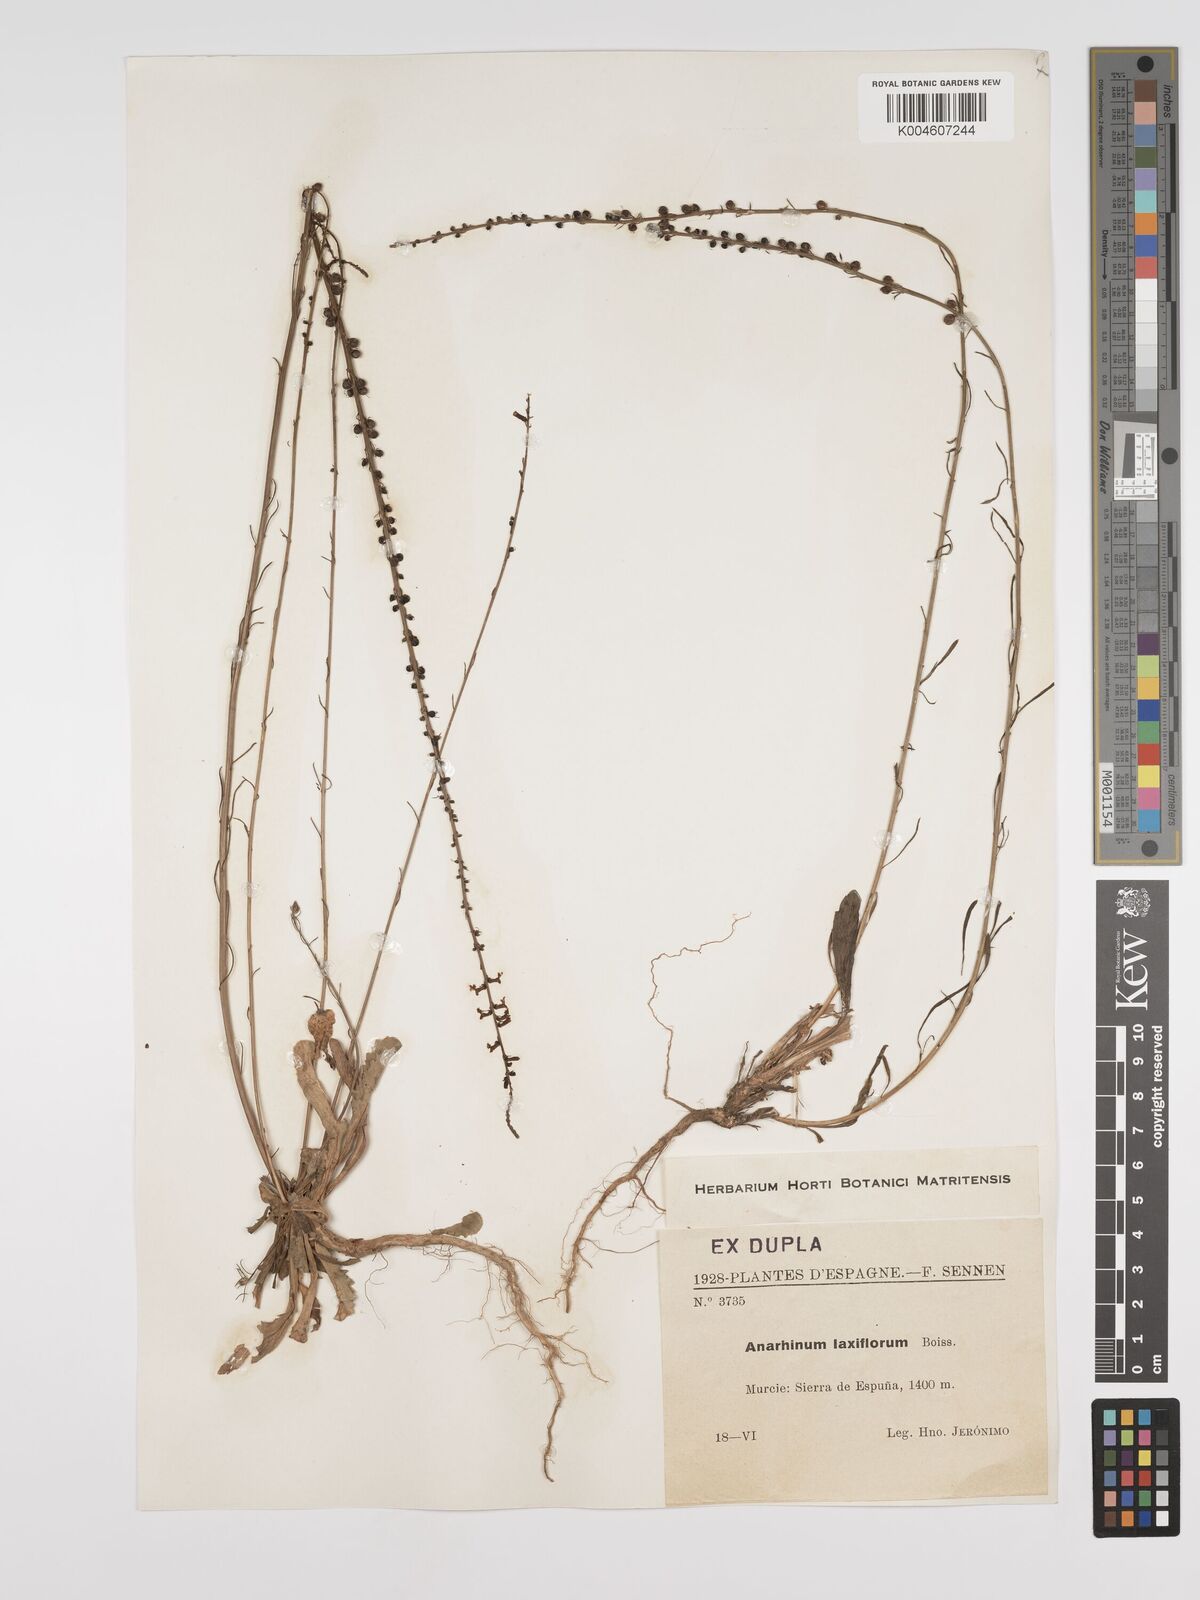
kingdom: Plantae
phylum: Tracheophyta
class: Magnoliopsida
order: Lamiales
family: Plantaginaceae
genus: Anarrhinum
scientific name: Anarrhinum laxiflorum
